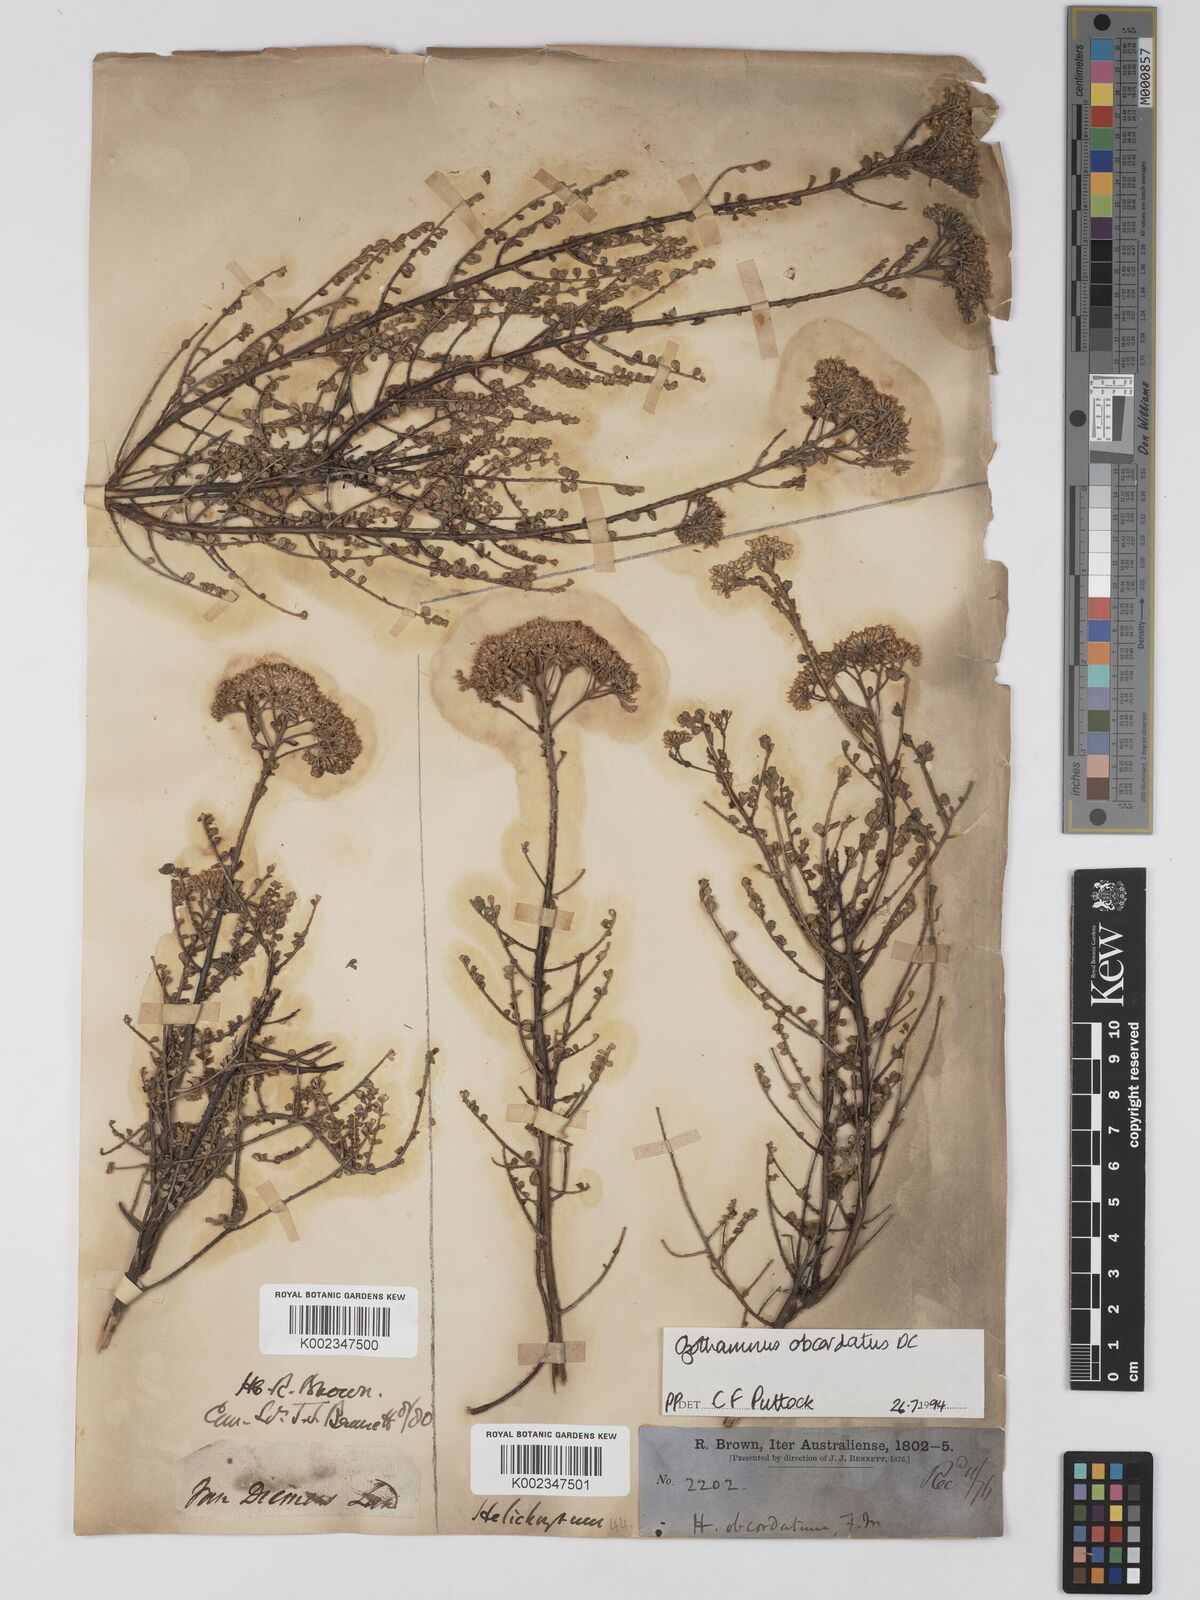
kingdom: Plantae
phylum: Tracheophyta
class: Magnoliopsida
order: Asterales
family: Asteraceae
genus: Ozothamnus
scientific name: Ozothamnus
